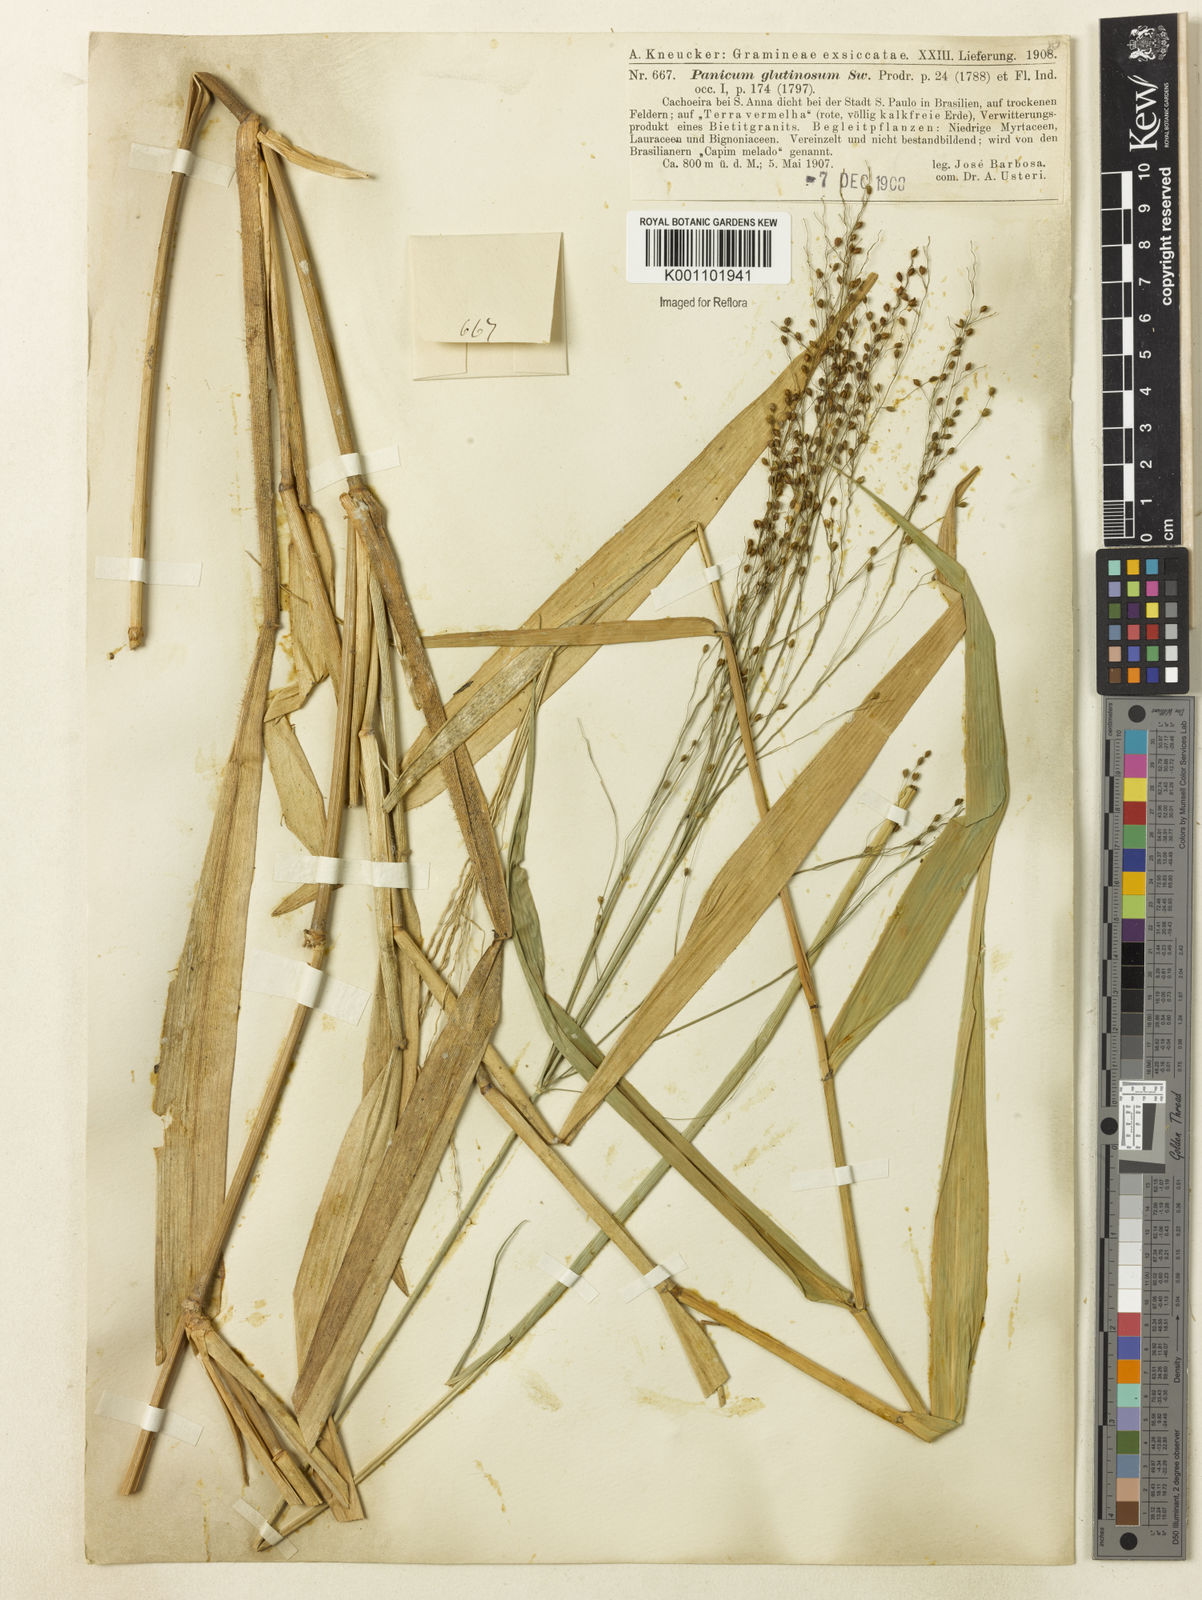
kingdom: Plantae
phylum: Tracheophyta
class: Liliopsida
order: Poales
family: Poaceae
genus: Homolepis
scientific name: Homolepis glutinosa
